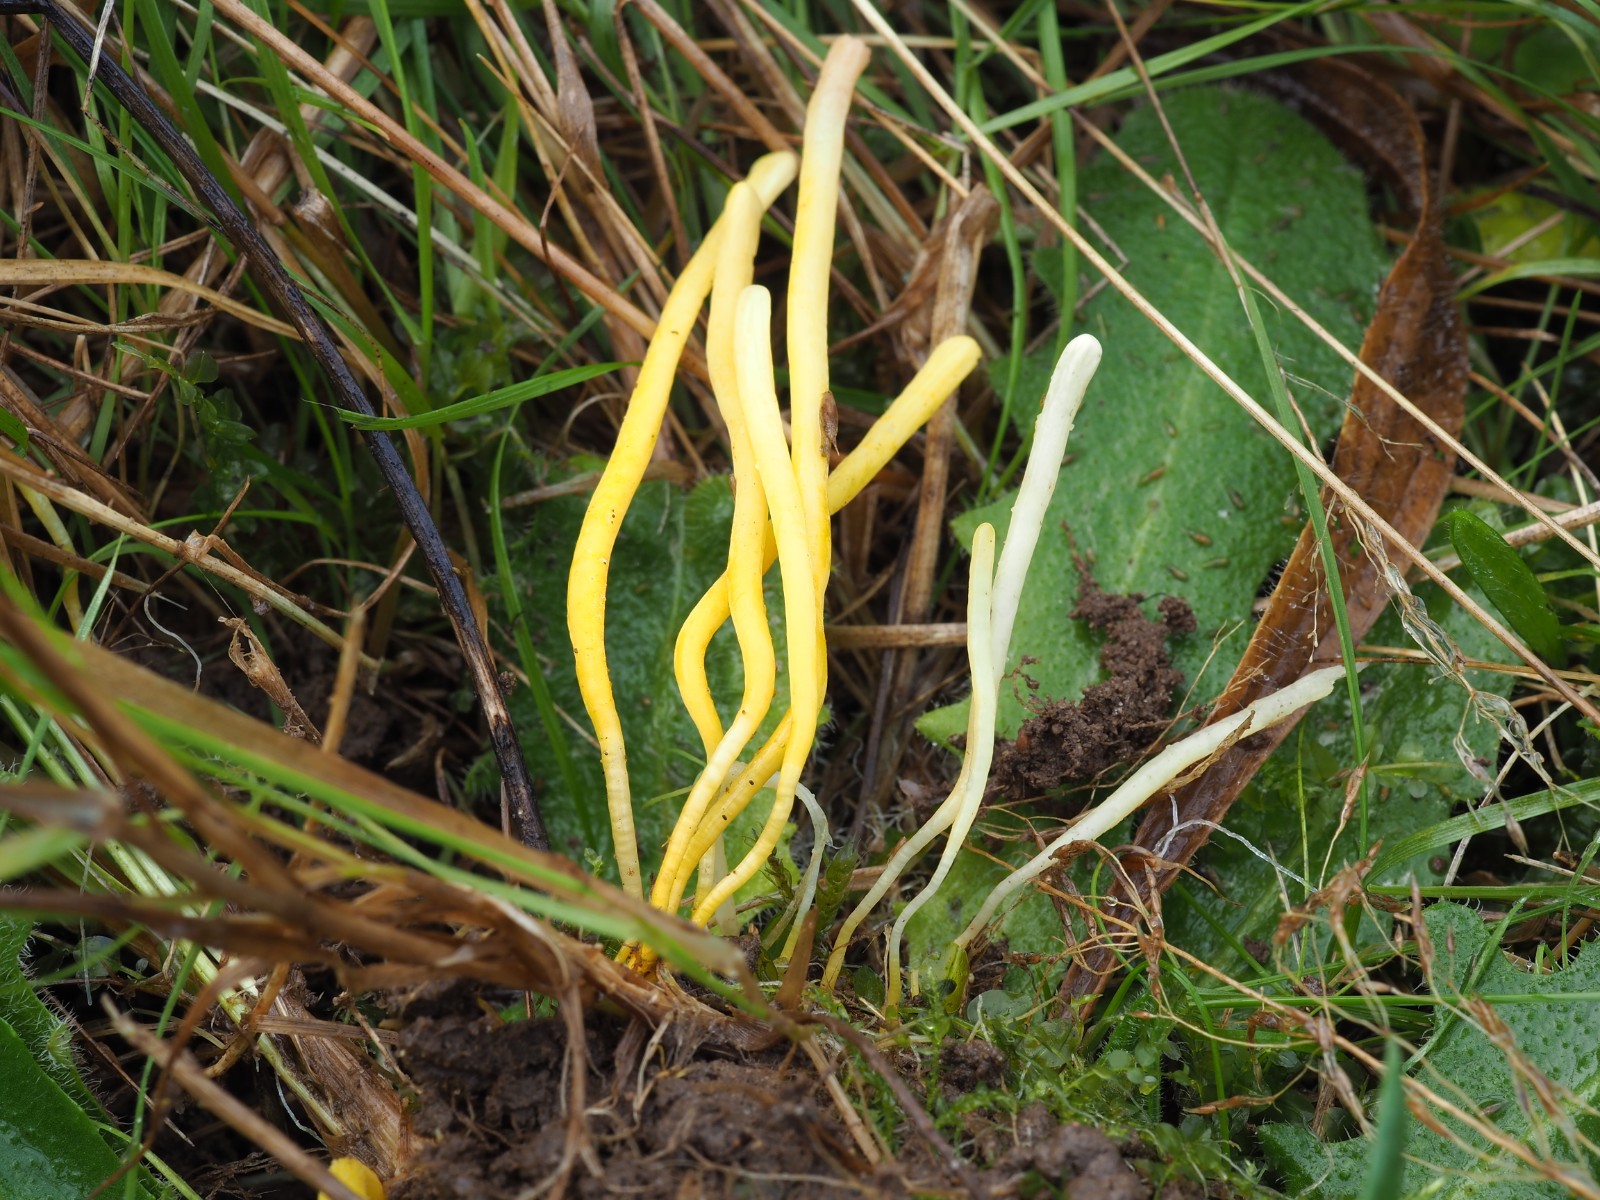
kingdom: Fungi
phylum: Basidiomycota
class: Agaricomycetes
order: Agaricales
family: Clavariaceae
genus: Clavulinopsis
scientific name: Clavulinopsis helvola
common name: orangegul køllesvamp
